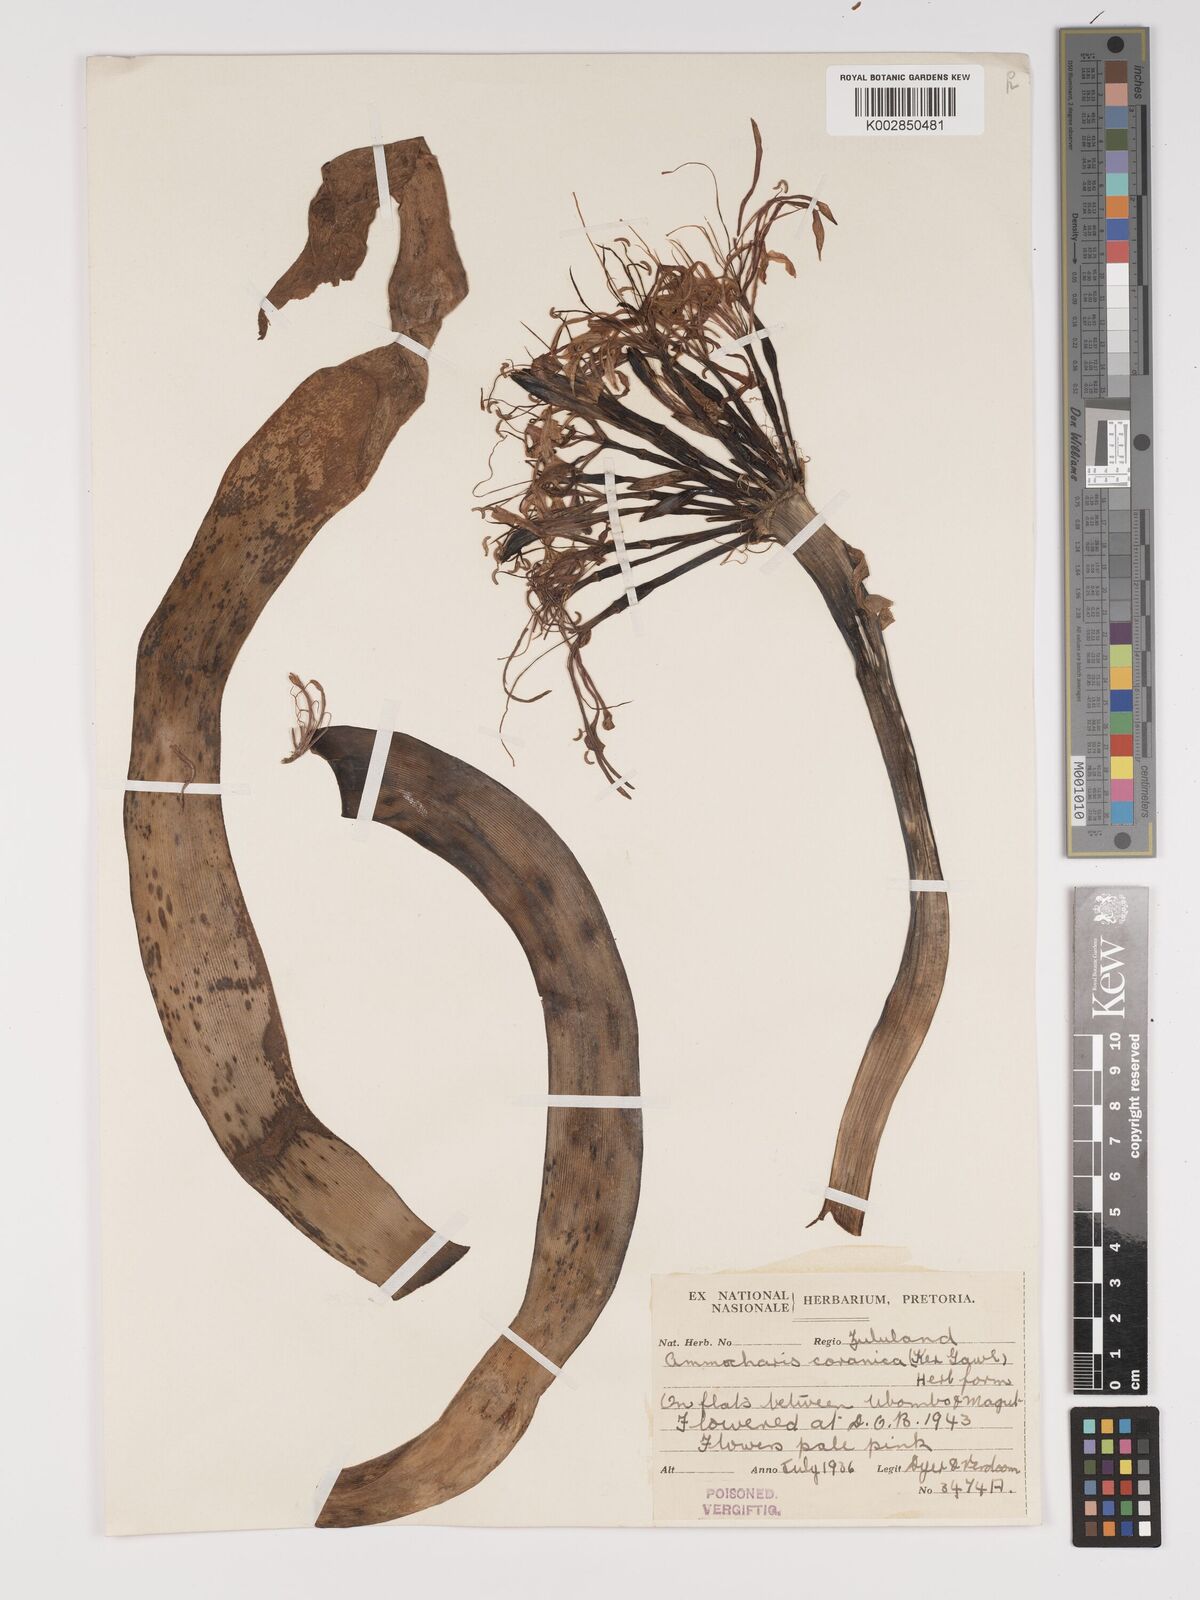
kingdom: Plantae
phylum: Tracheophyta
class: Liliopsida
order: Asparagales
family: Amaryllidaceae
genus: Ammocharis
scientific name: Ammocharis coranica
